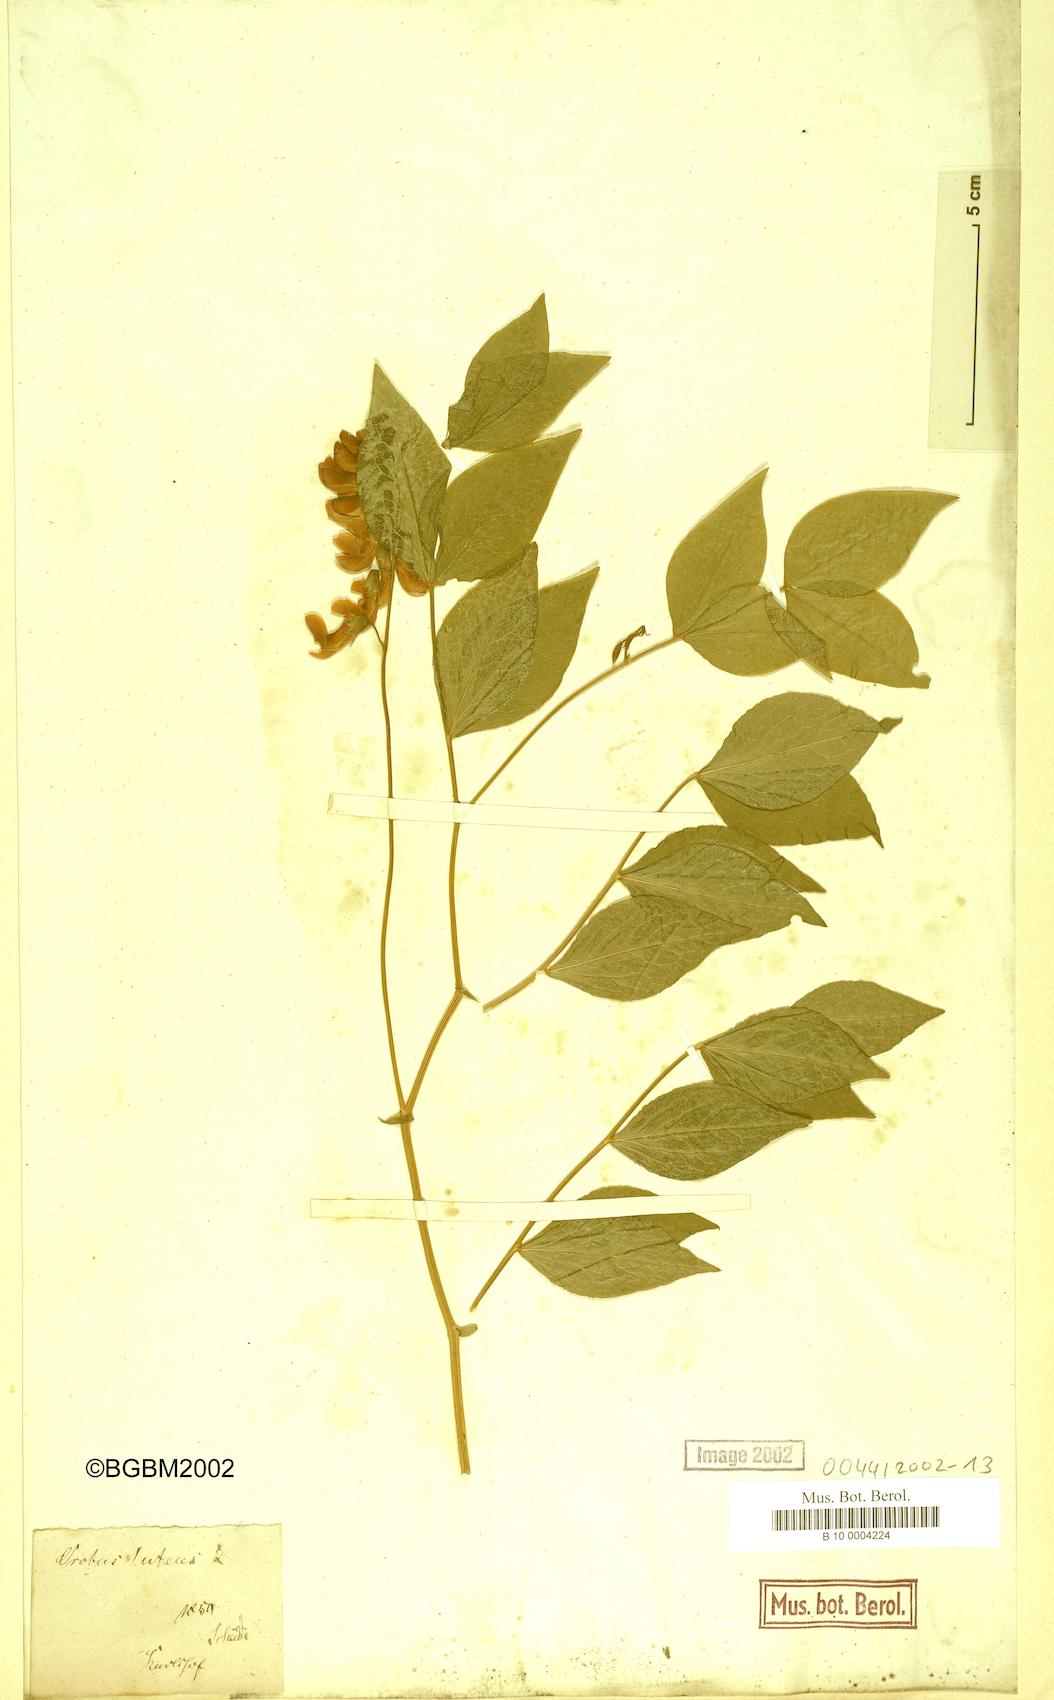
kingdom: Plantae
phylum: Tracheophyta
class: Magnoliopsida
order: Fabales
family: Fabaceae
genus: Lathyrus
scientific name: Lathyrus gmelinii
